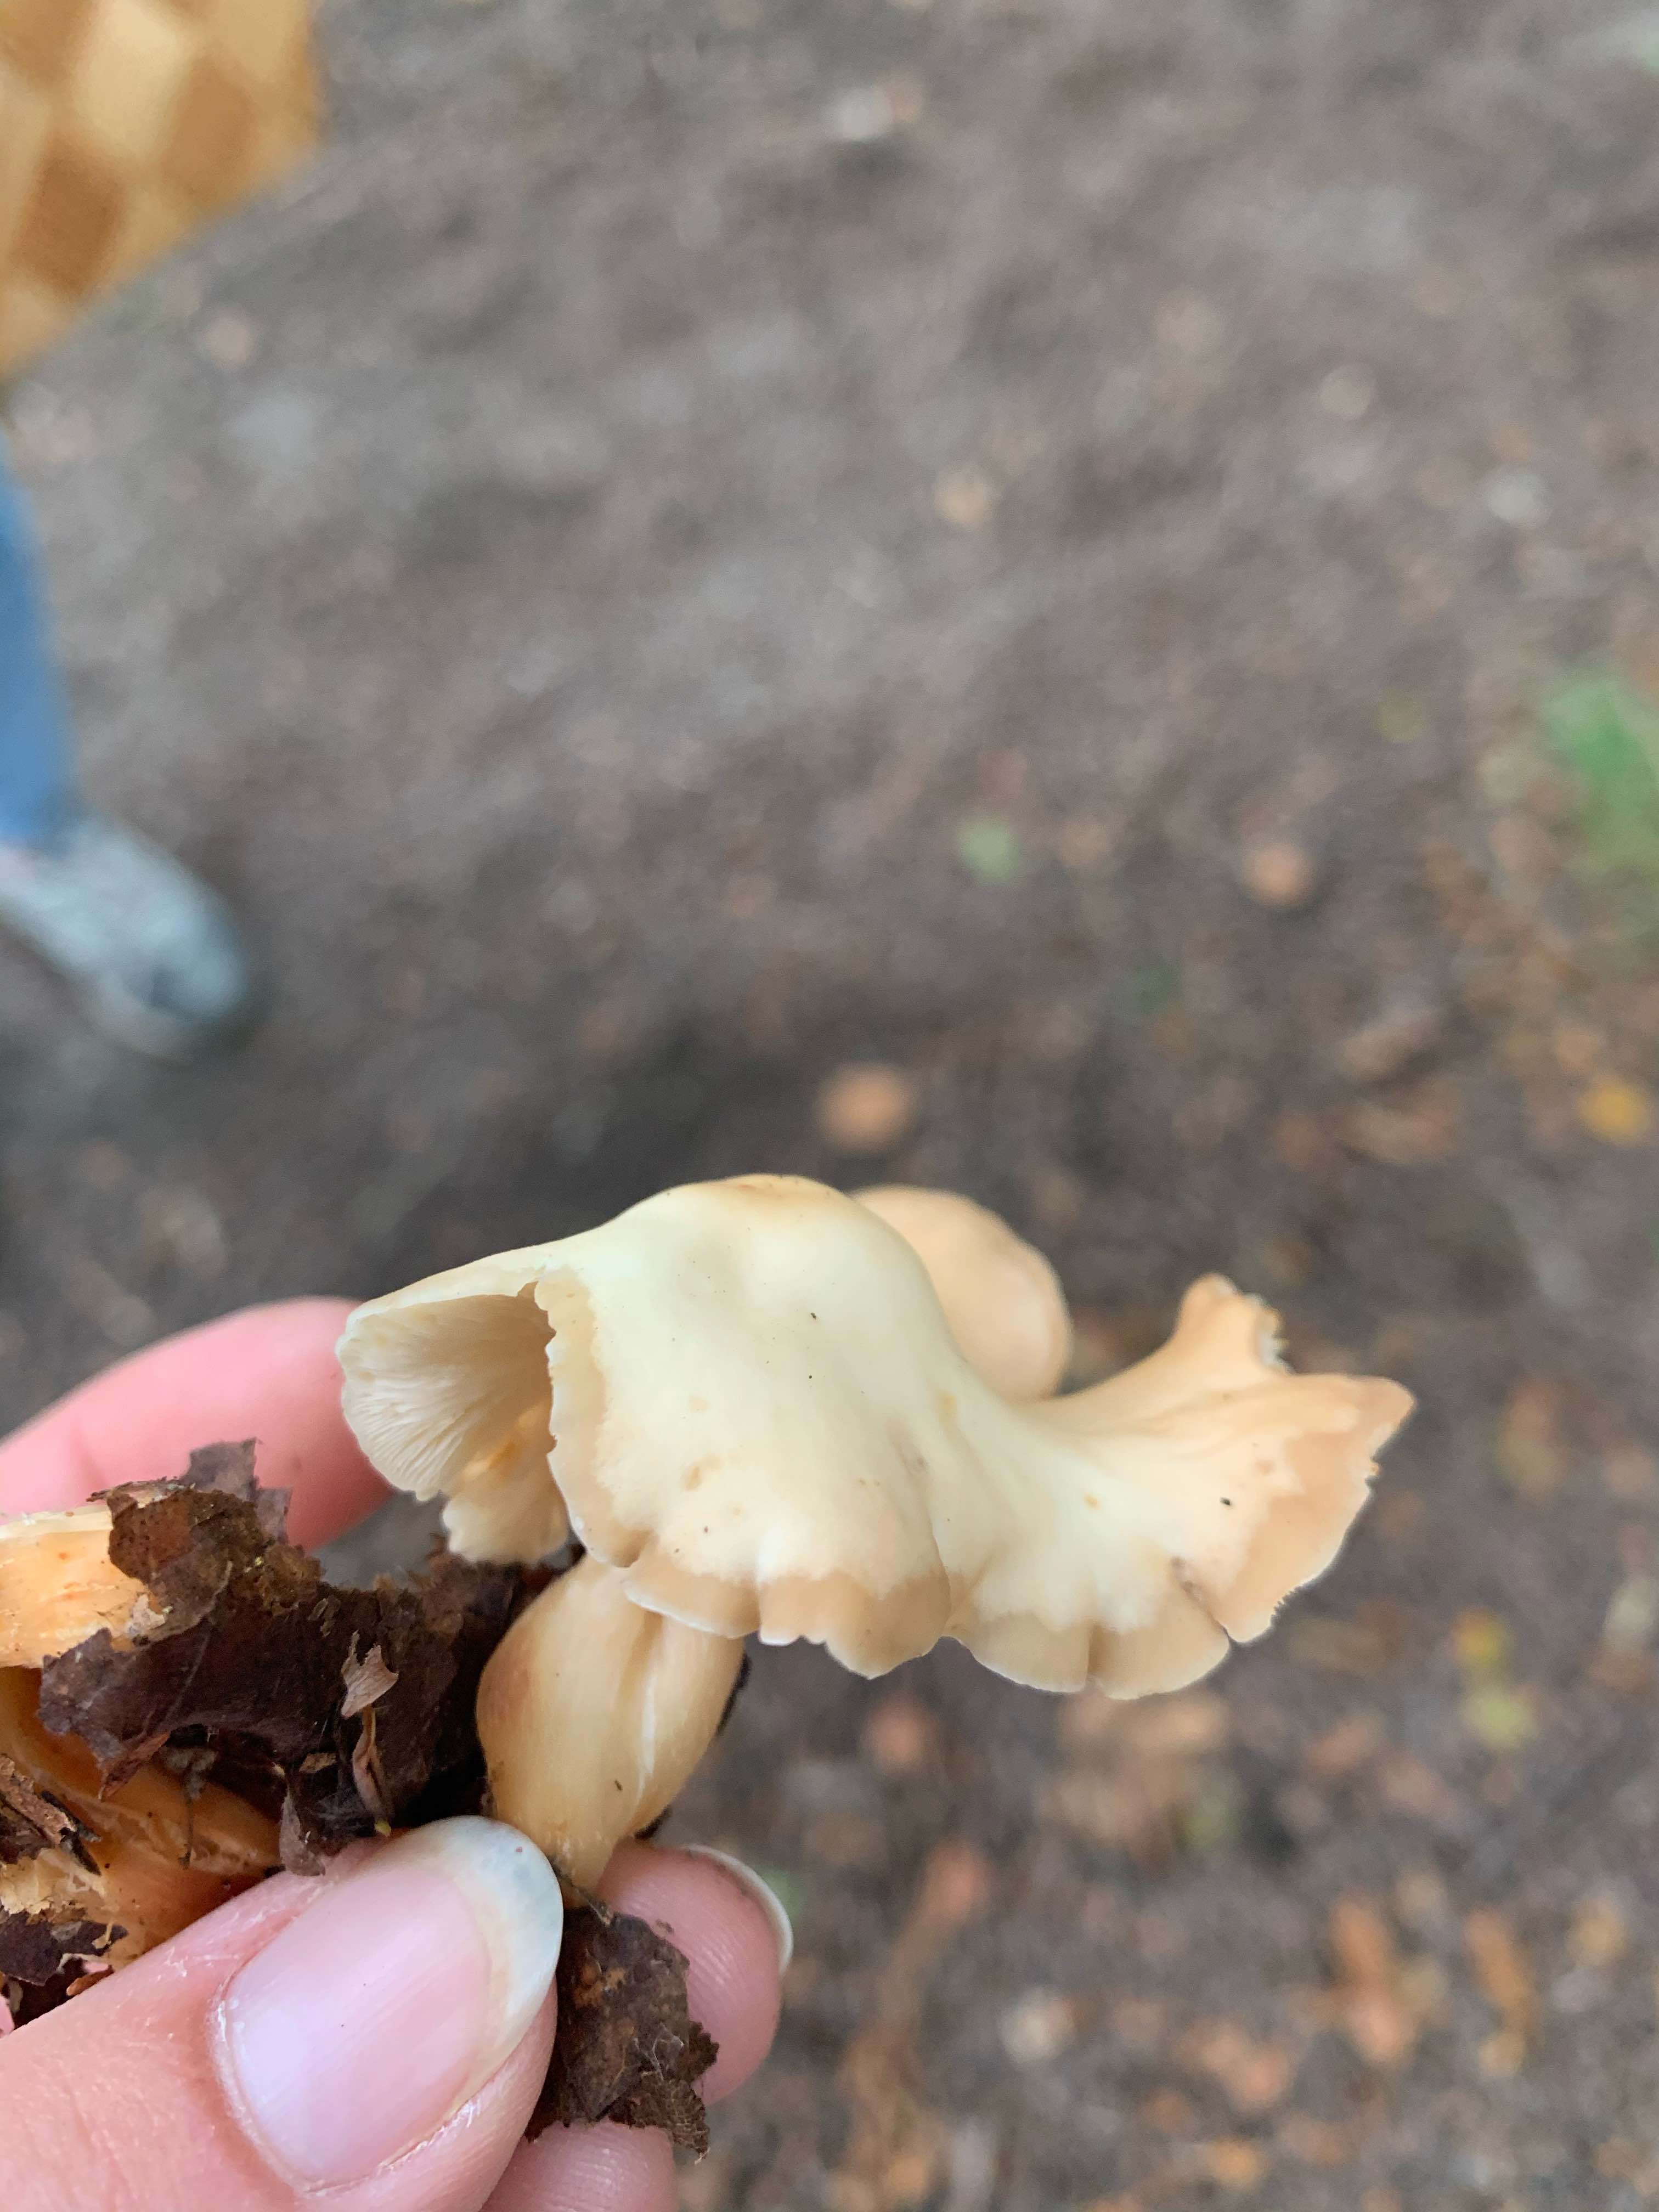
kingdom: Fungi
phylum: Basidiomycota
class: Agaricomycetes
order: Agaricales
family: Omphalotaceae
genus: Gymnopus
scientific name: Gymnopus
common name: fladhat
